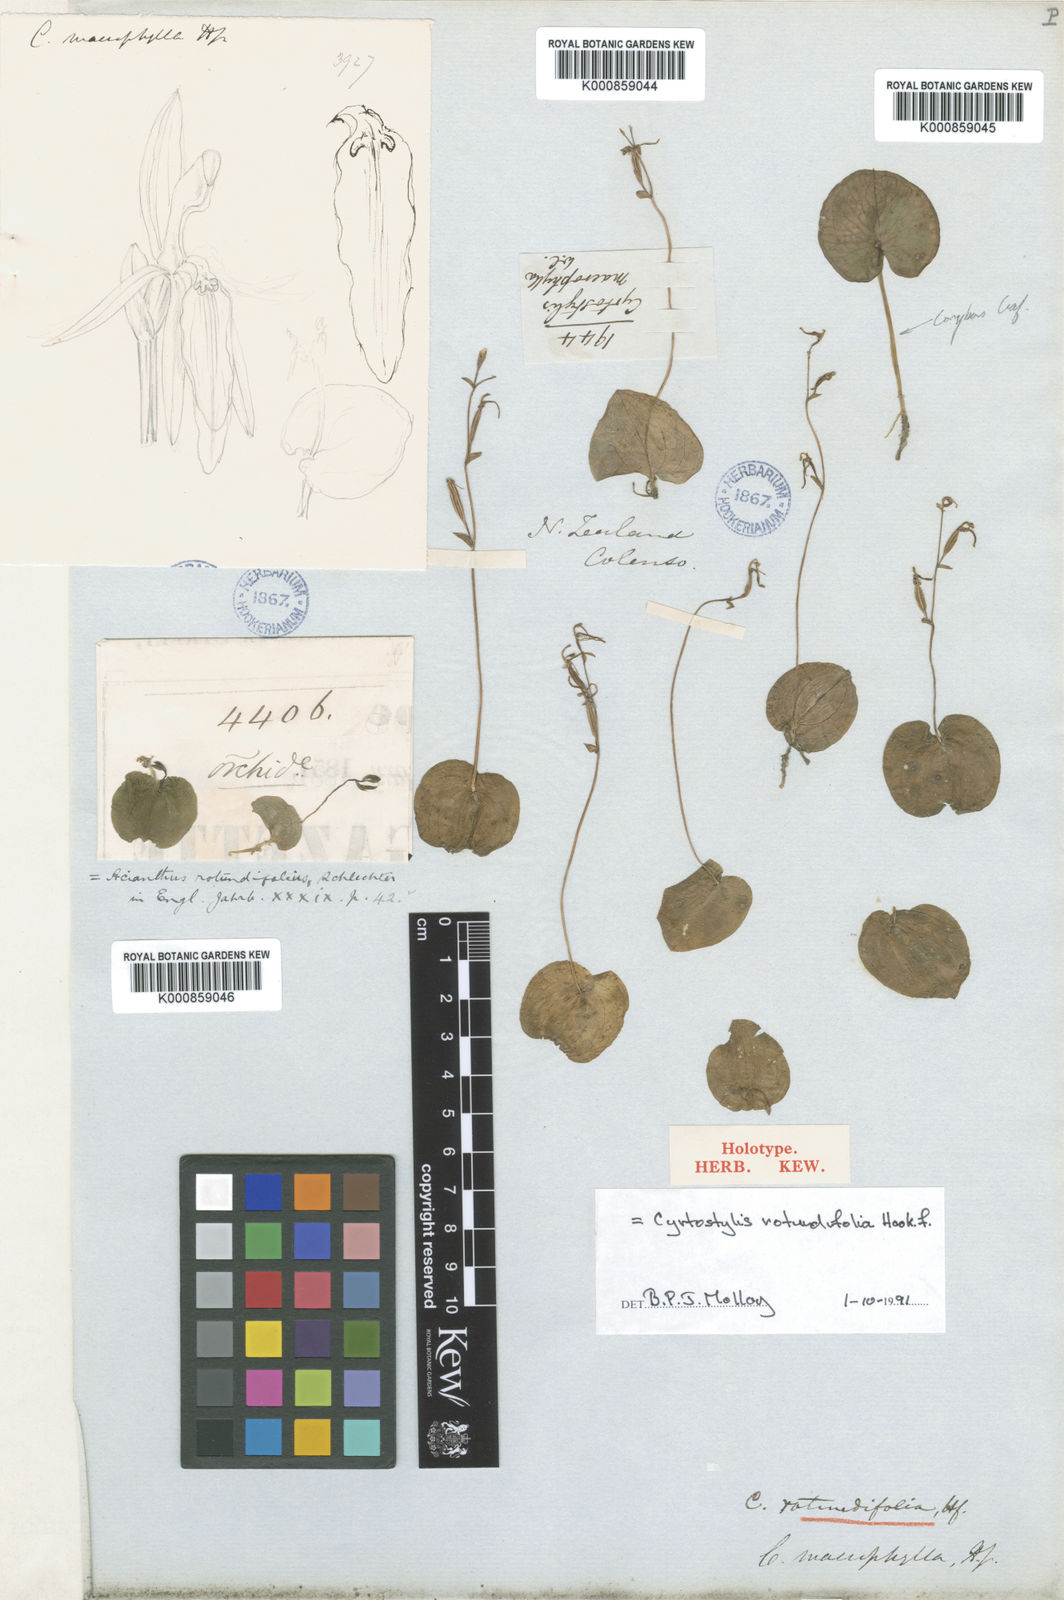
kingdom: Plantae
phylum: Tracheophyta
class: Liliopsida
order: Asparagales
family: Orchidaceae
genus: Cyrtostylis
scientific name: Cyrtostylis rotundifolia
